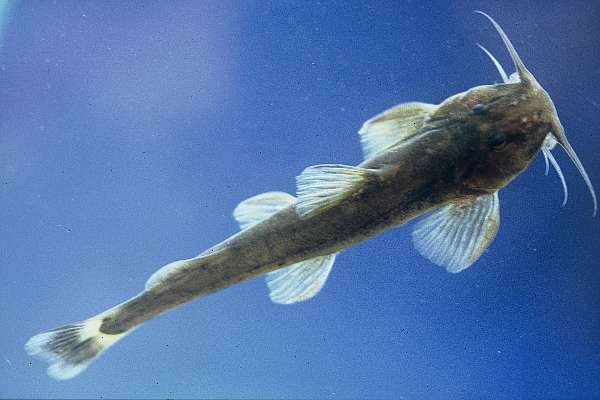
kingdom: Animalia
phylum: Chordata
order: Siluriformes
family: Amphiliidae
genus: Amphilius
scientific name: Amphilius uranoscopus
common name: Stargazer mountain catfish
